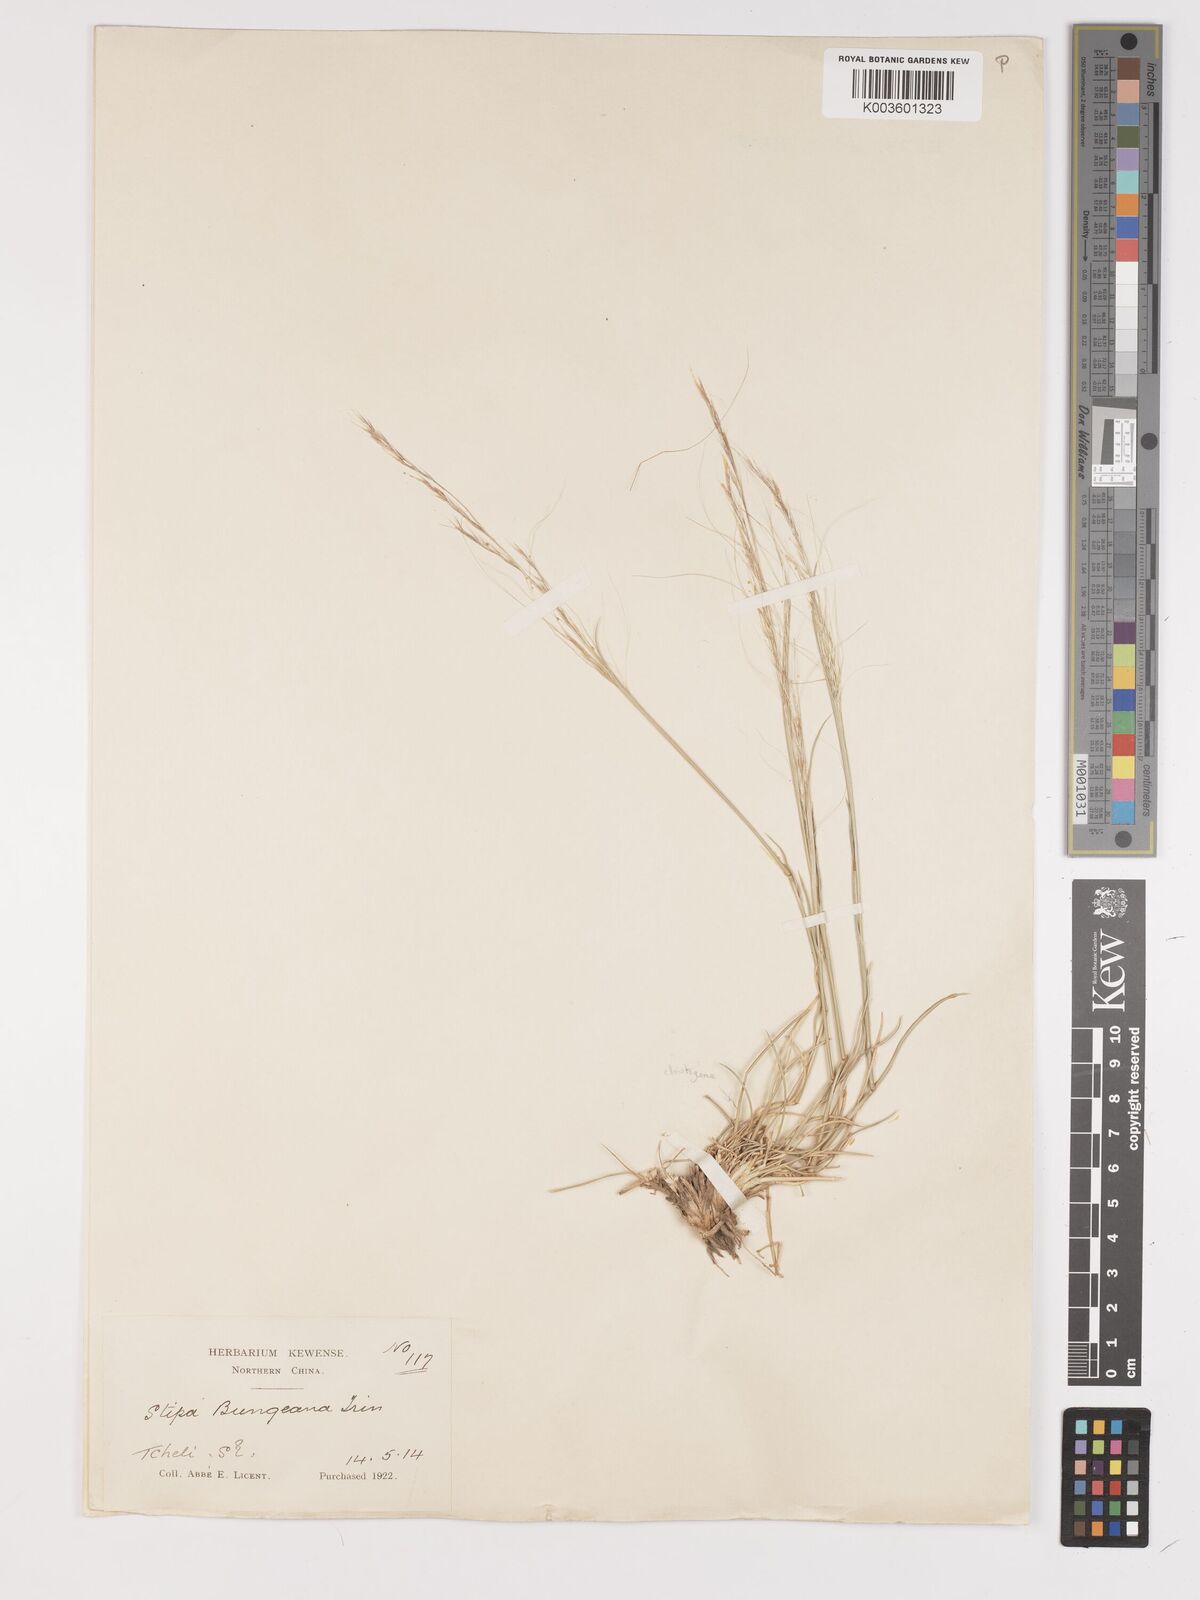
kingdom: Plantae
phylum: Tracheophyta
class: Liliopsida
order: Poales
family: Poaceae
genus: Stipa
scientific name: Stipa bungeana
